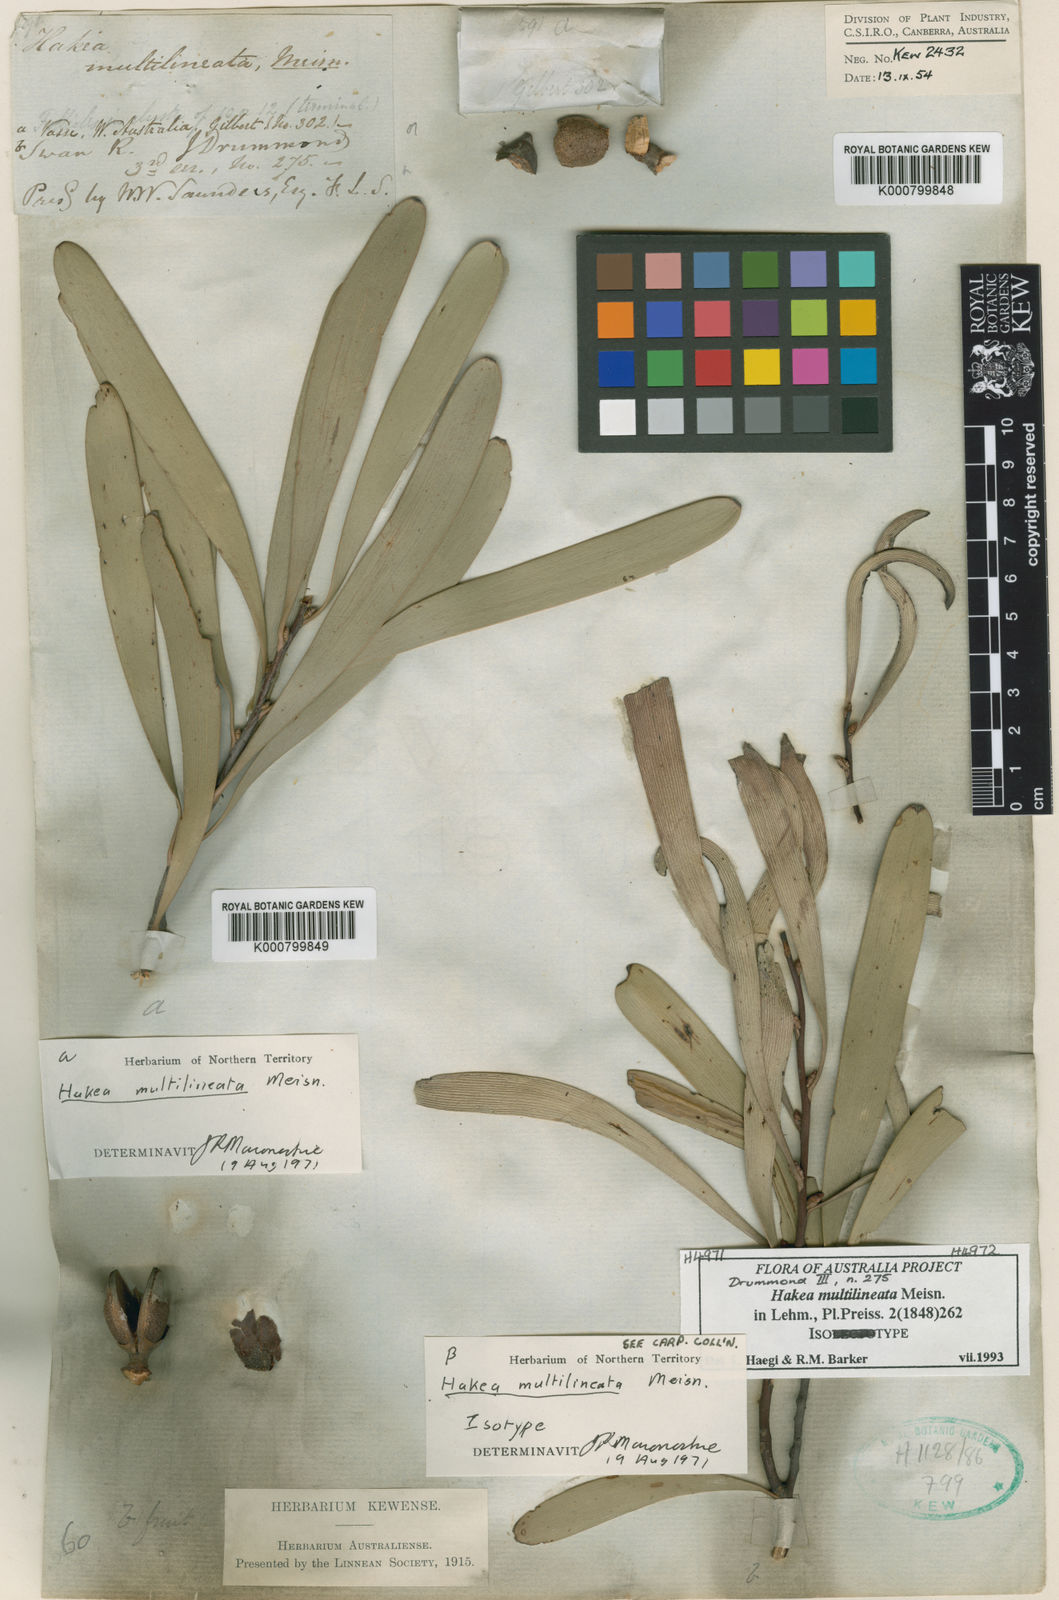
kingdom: Plantae
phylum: Tracheophyta
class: Magnoliopsida
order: Proteales
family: Proteaceae
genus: Hakea
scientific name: Hakea multilineata
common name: Grass-leaf hakea
